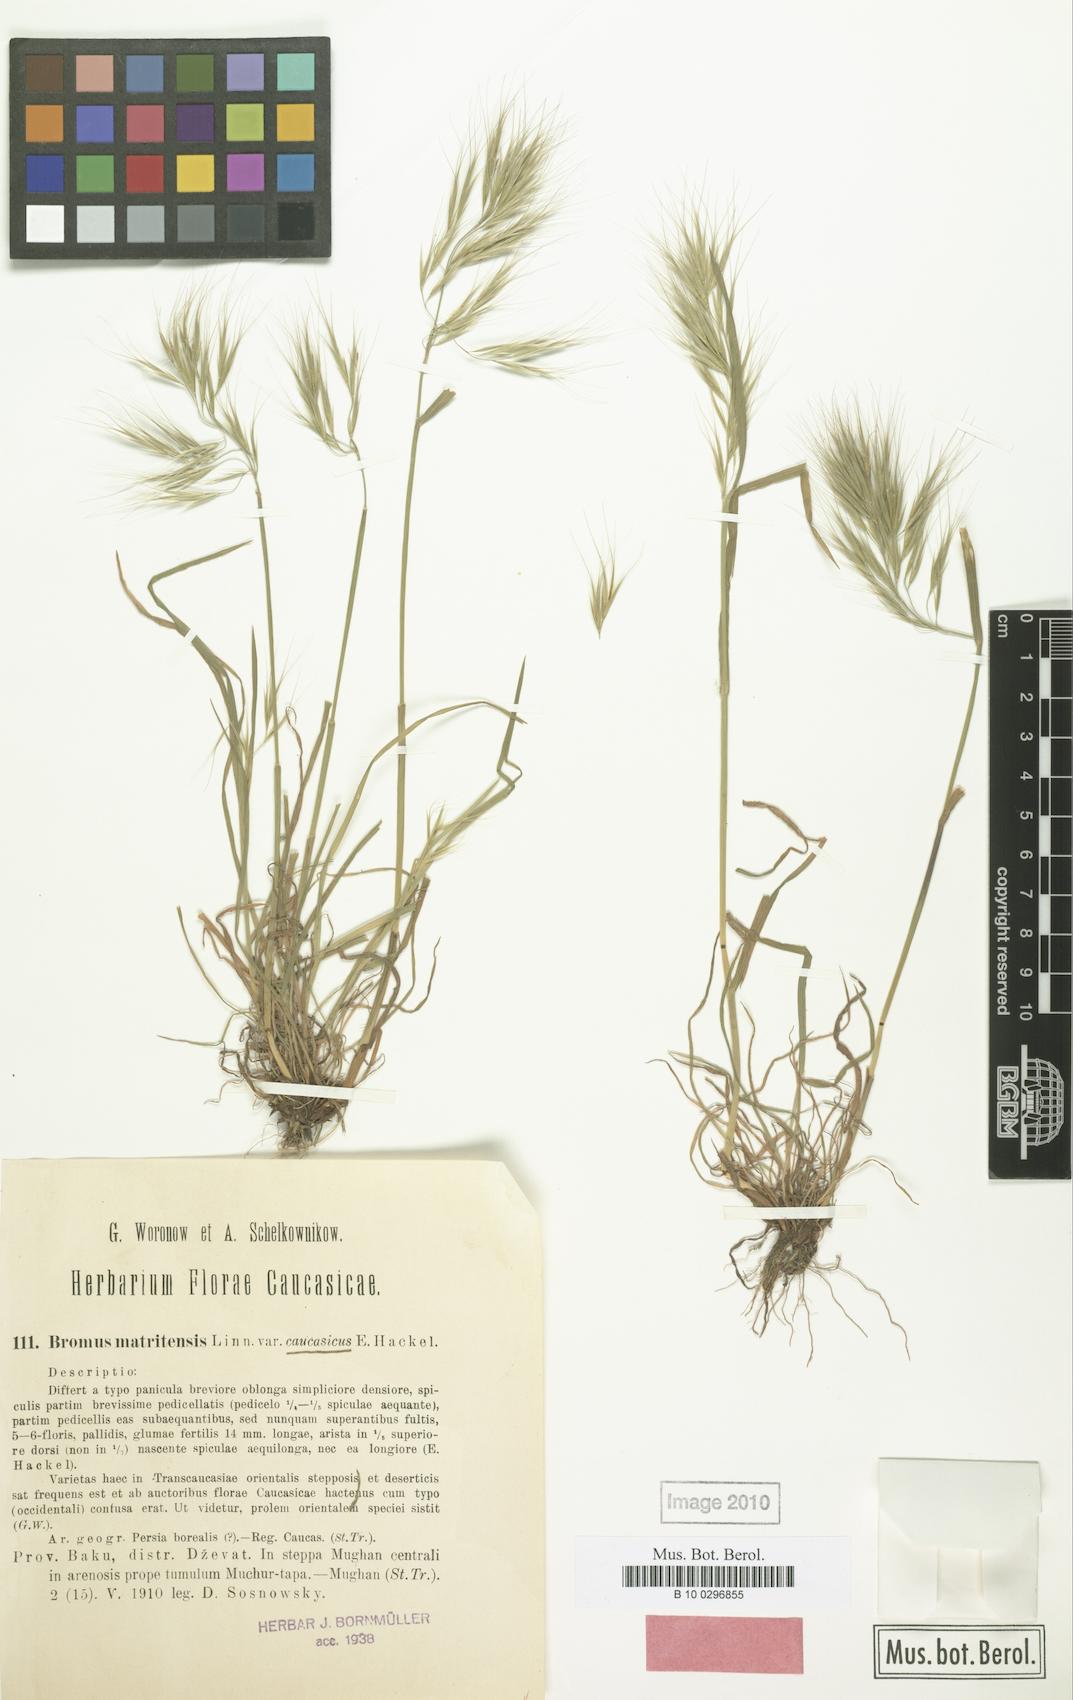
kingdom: Plantae
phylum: Tracheophyta
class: Liliopsida
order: Poales
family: Poaceae
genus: Bromus
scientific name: Bromus rubens
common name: Red brome
